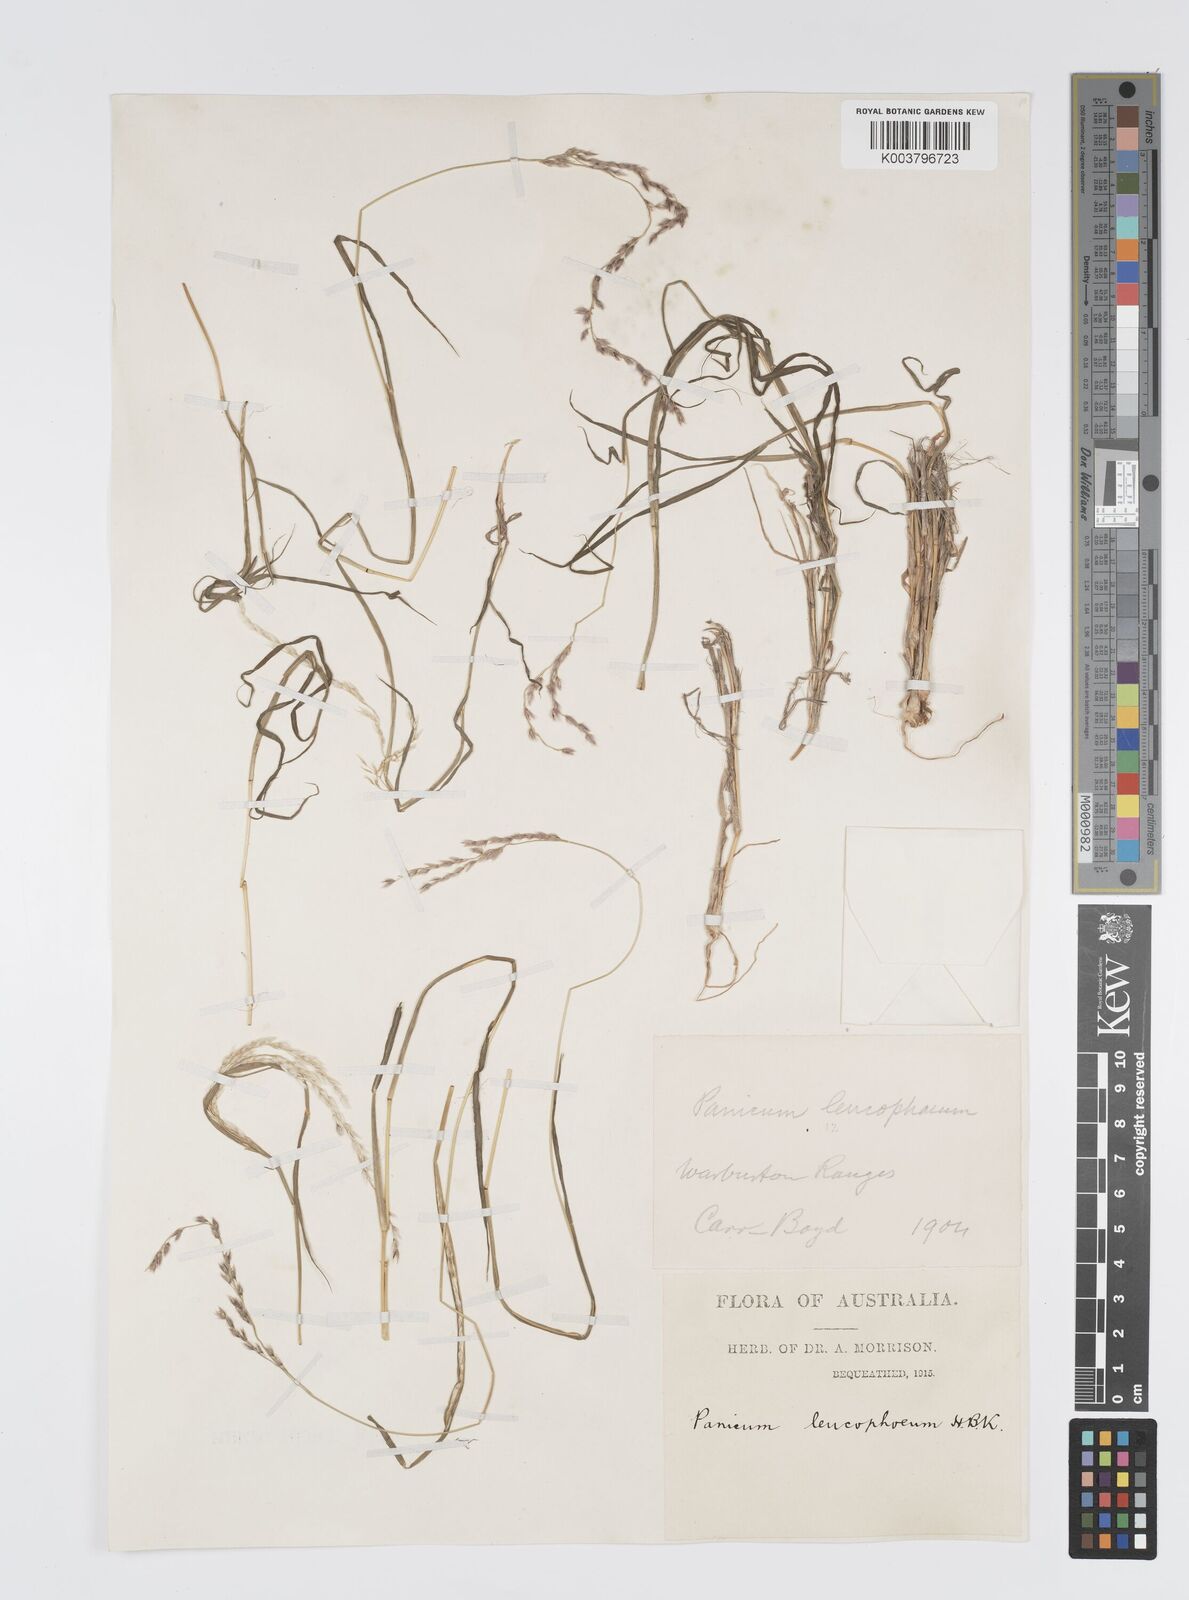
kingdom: Plantae
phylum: Tracheophyta
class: Liliopsida
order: Poales
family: Poaceae
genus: Digitaria
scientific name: Digitaria brownii
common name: Cotton grass
